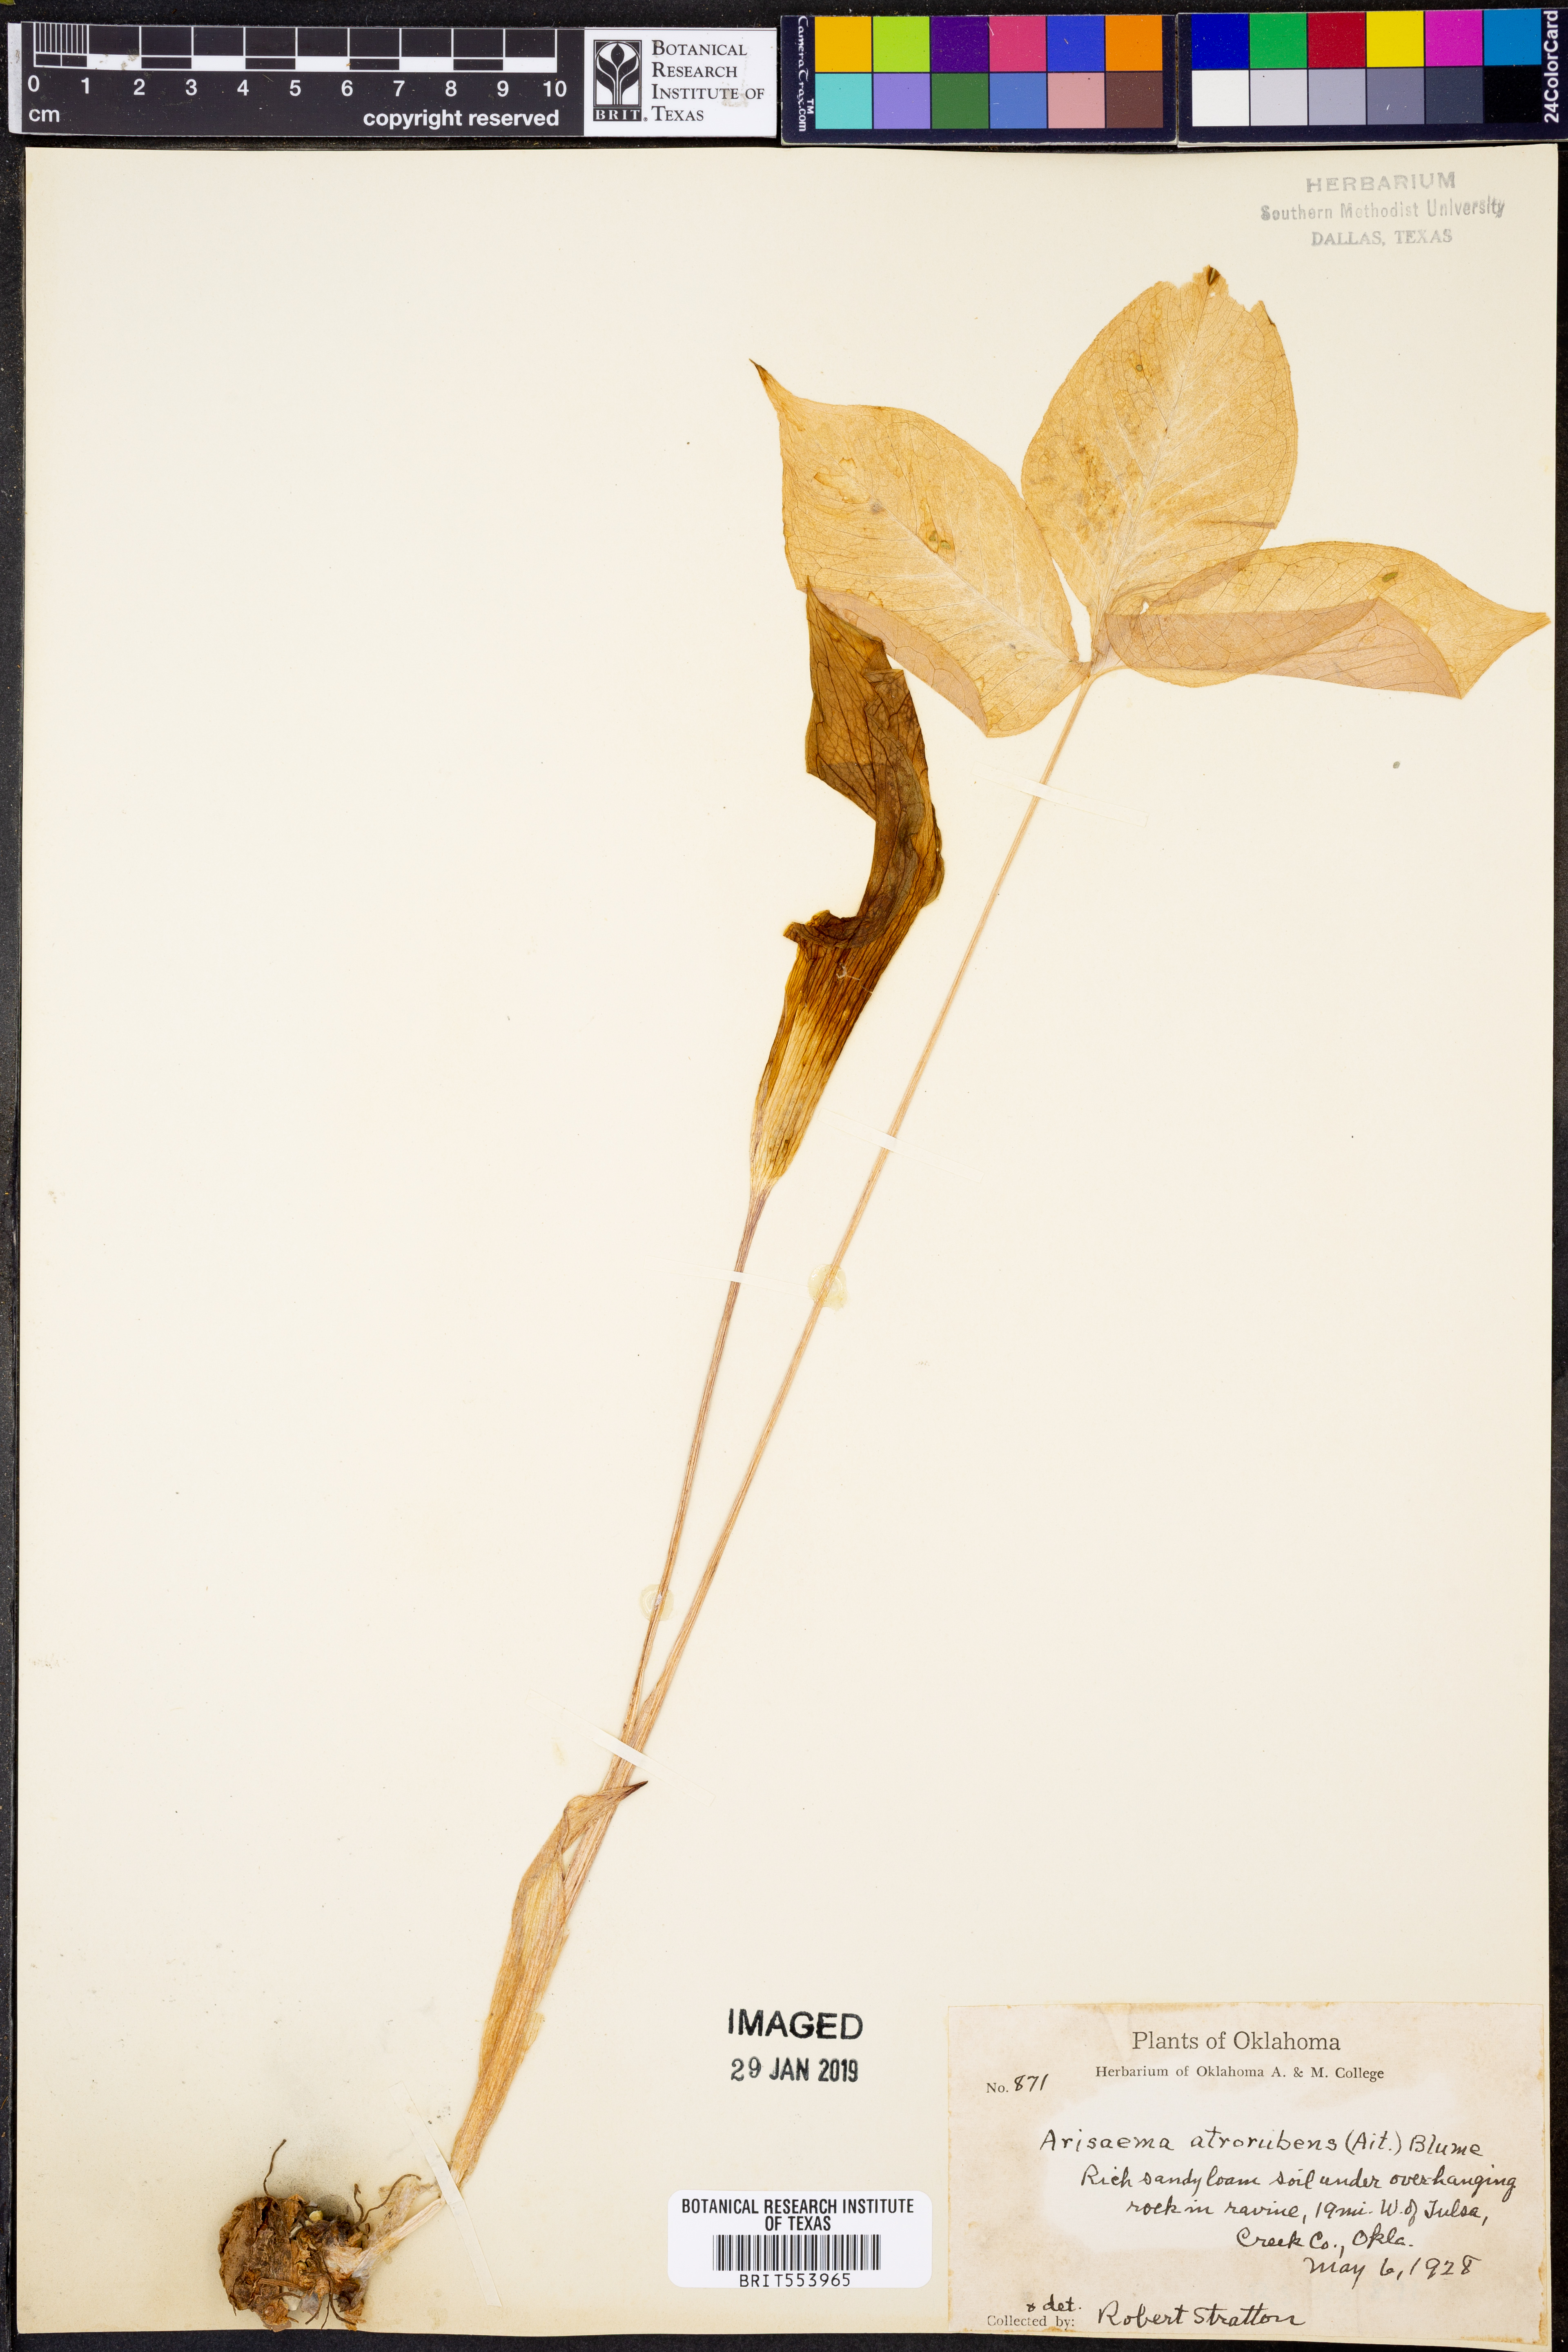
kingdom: Plantae
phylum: Tracheophyta
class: Liliopsida
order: Alismatales
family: Araceae
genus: Arisaema
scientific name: Arisaema triphyllum
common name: Jack-in-the-pulpit
